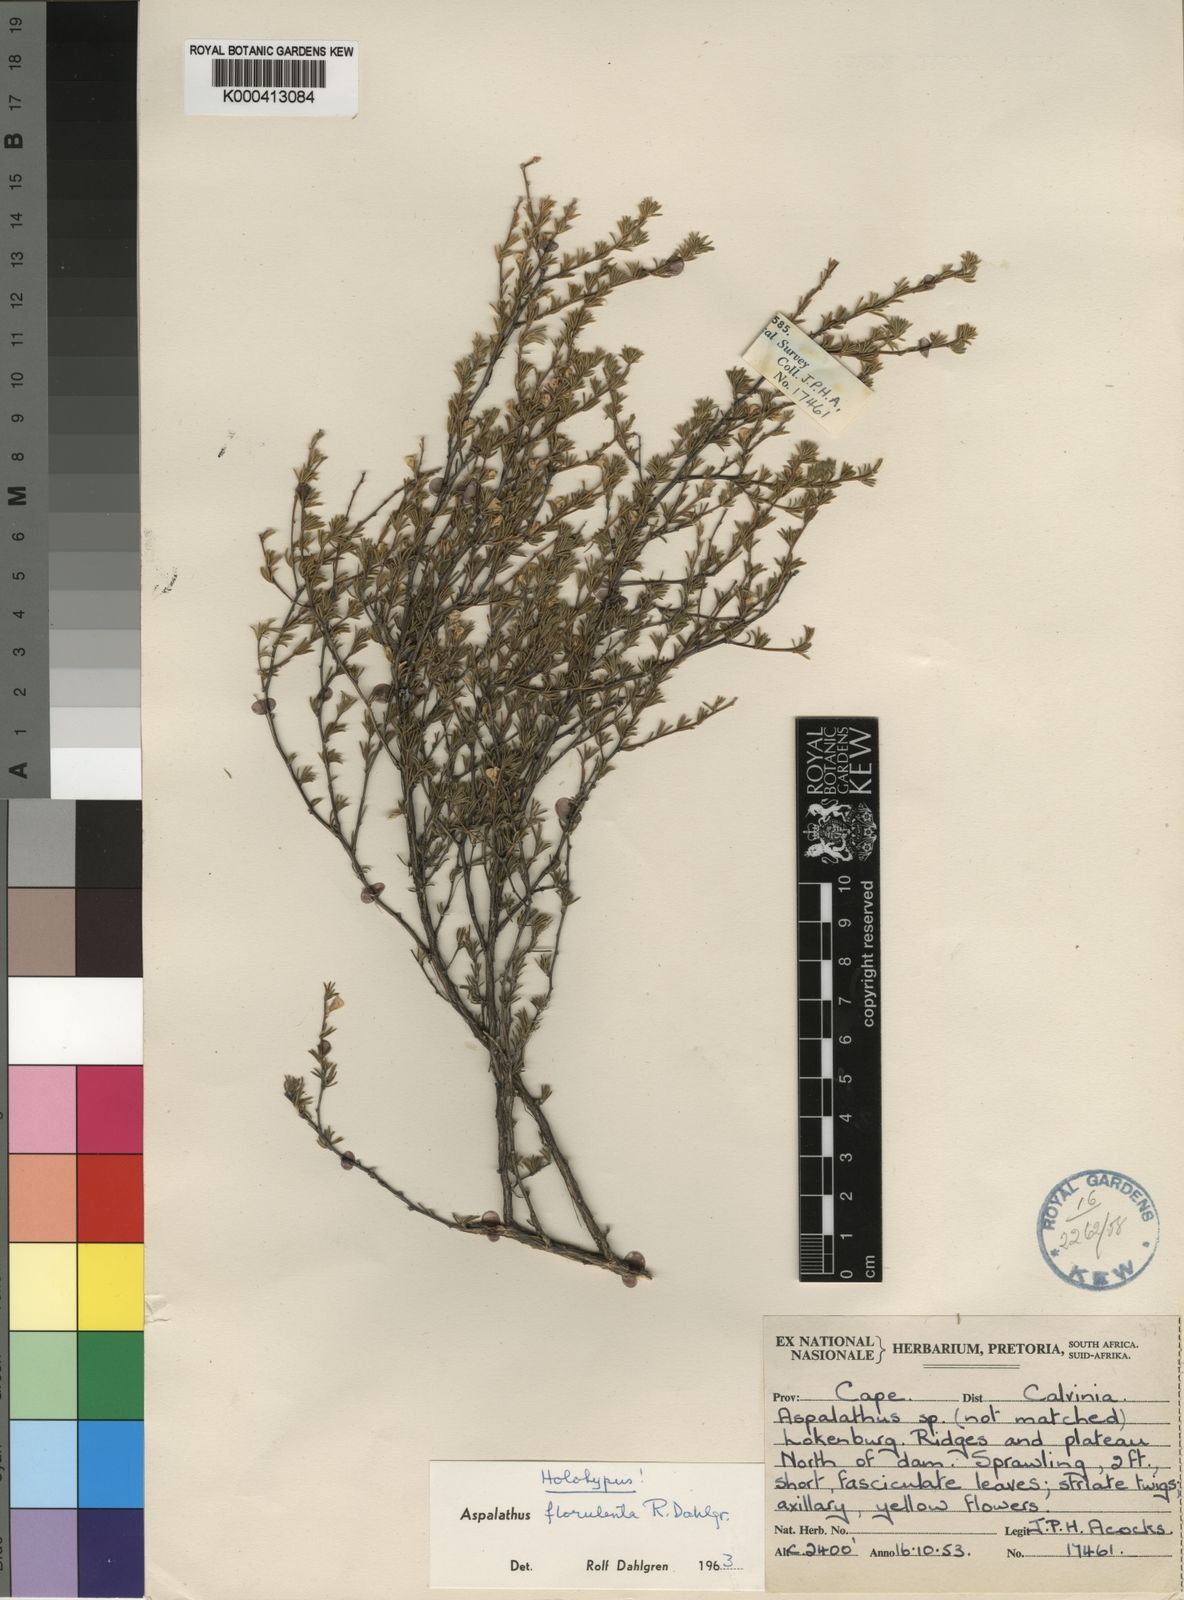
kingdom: Plantae
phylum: Tracheophyta
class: Magnoliopsida
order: Fabales
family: Fabaceae
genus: Aspalathus
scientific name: Aspalathus florulenta
